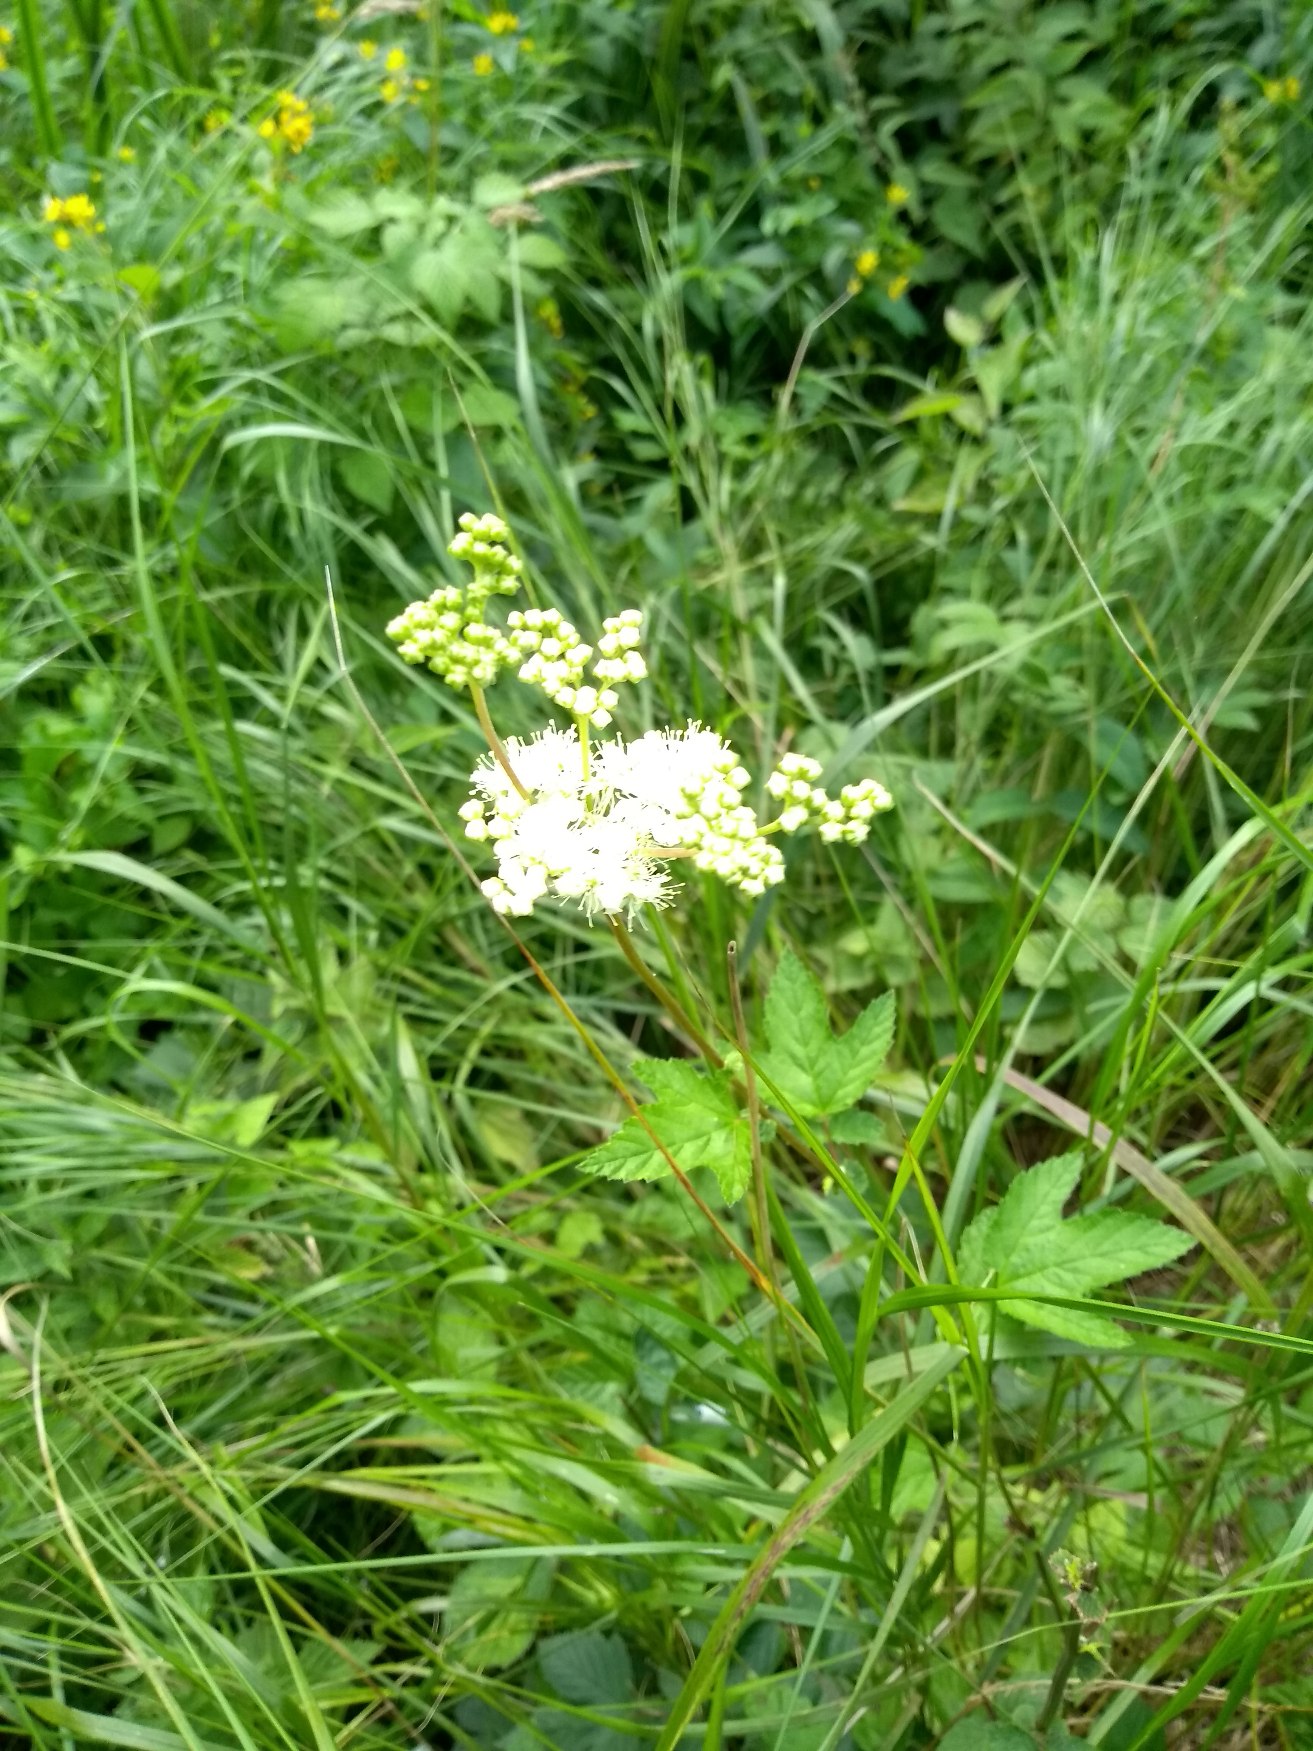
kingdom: Plantae
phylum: Tracheophyta
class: Magnoliopsida
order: Rosales
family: Rosaceae
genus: Filipendula
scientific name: Filipendula ulmaria
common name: Almindelig mjødurt
